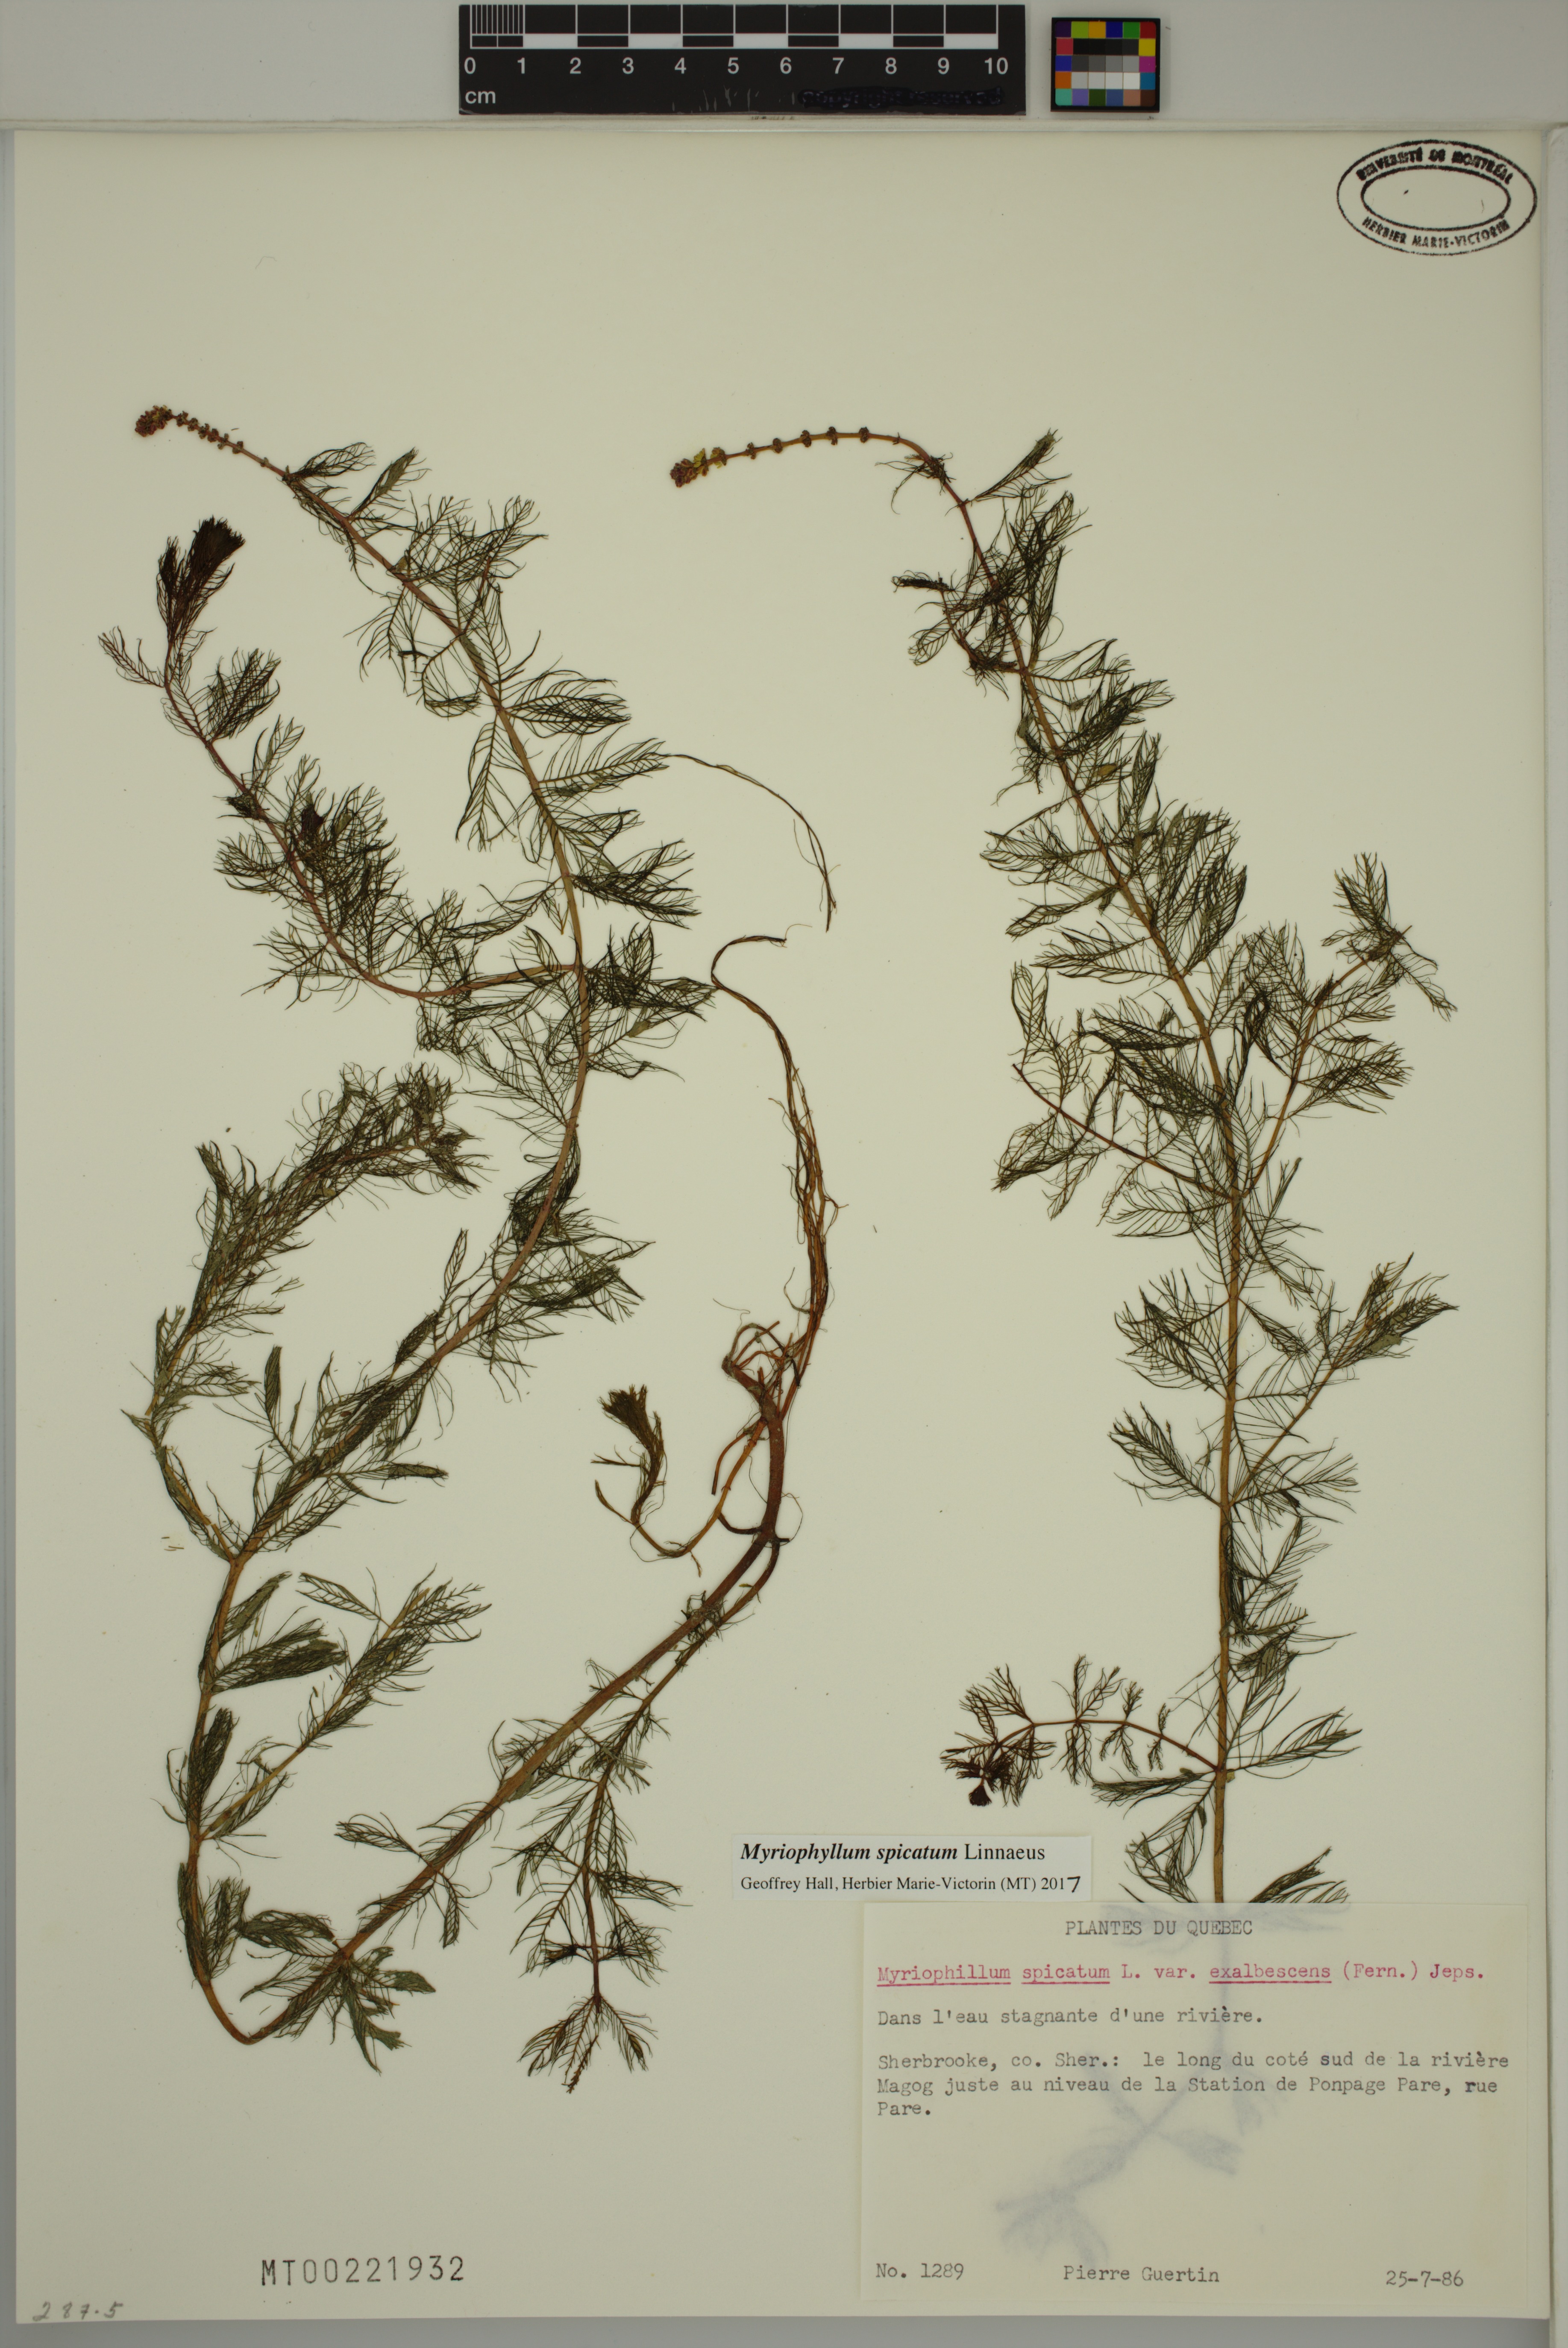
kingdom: Plantae
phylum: Tracheophyta
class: Magnoliopsida
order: Saxifragales
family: Haloragaceae
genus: Myriophyllum
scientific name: Myriophyllum spicatum
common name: Spiked water-milfoil
